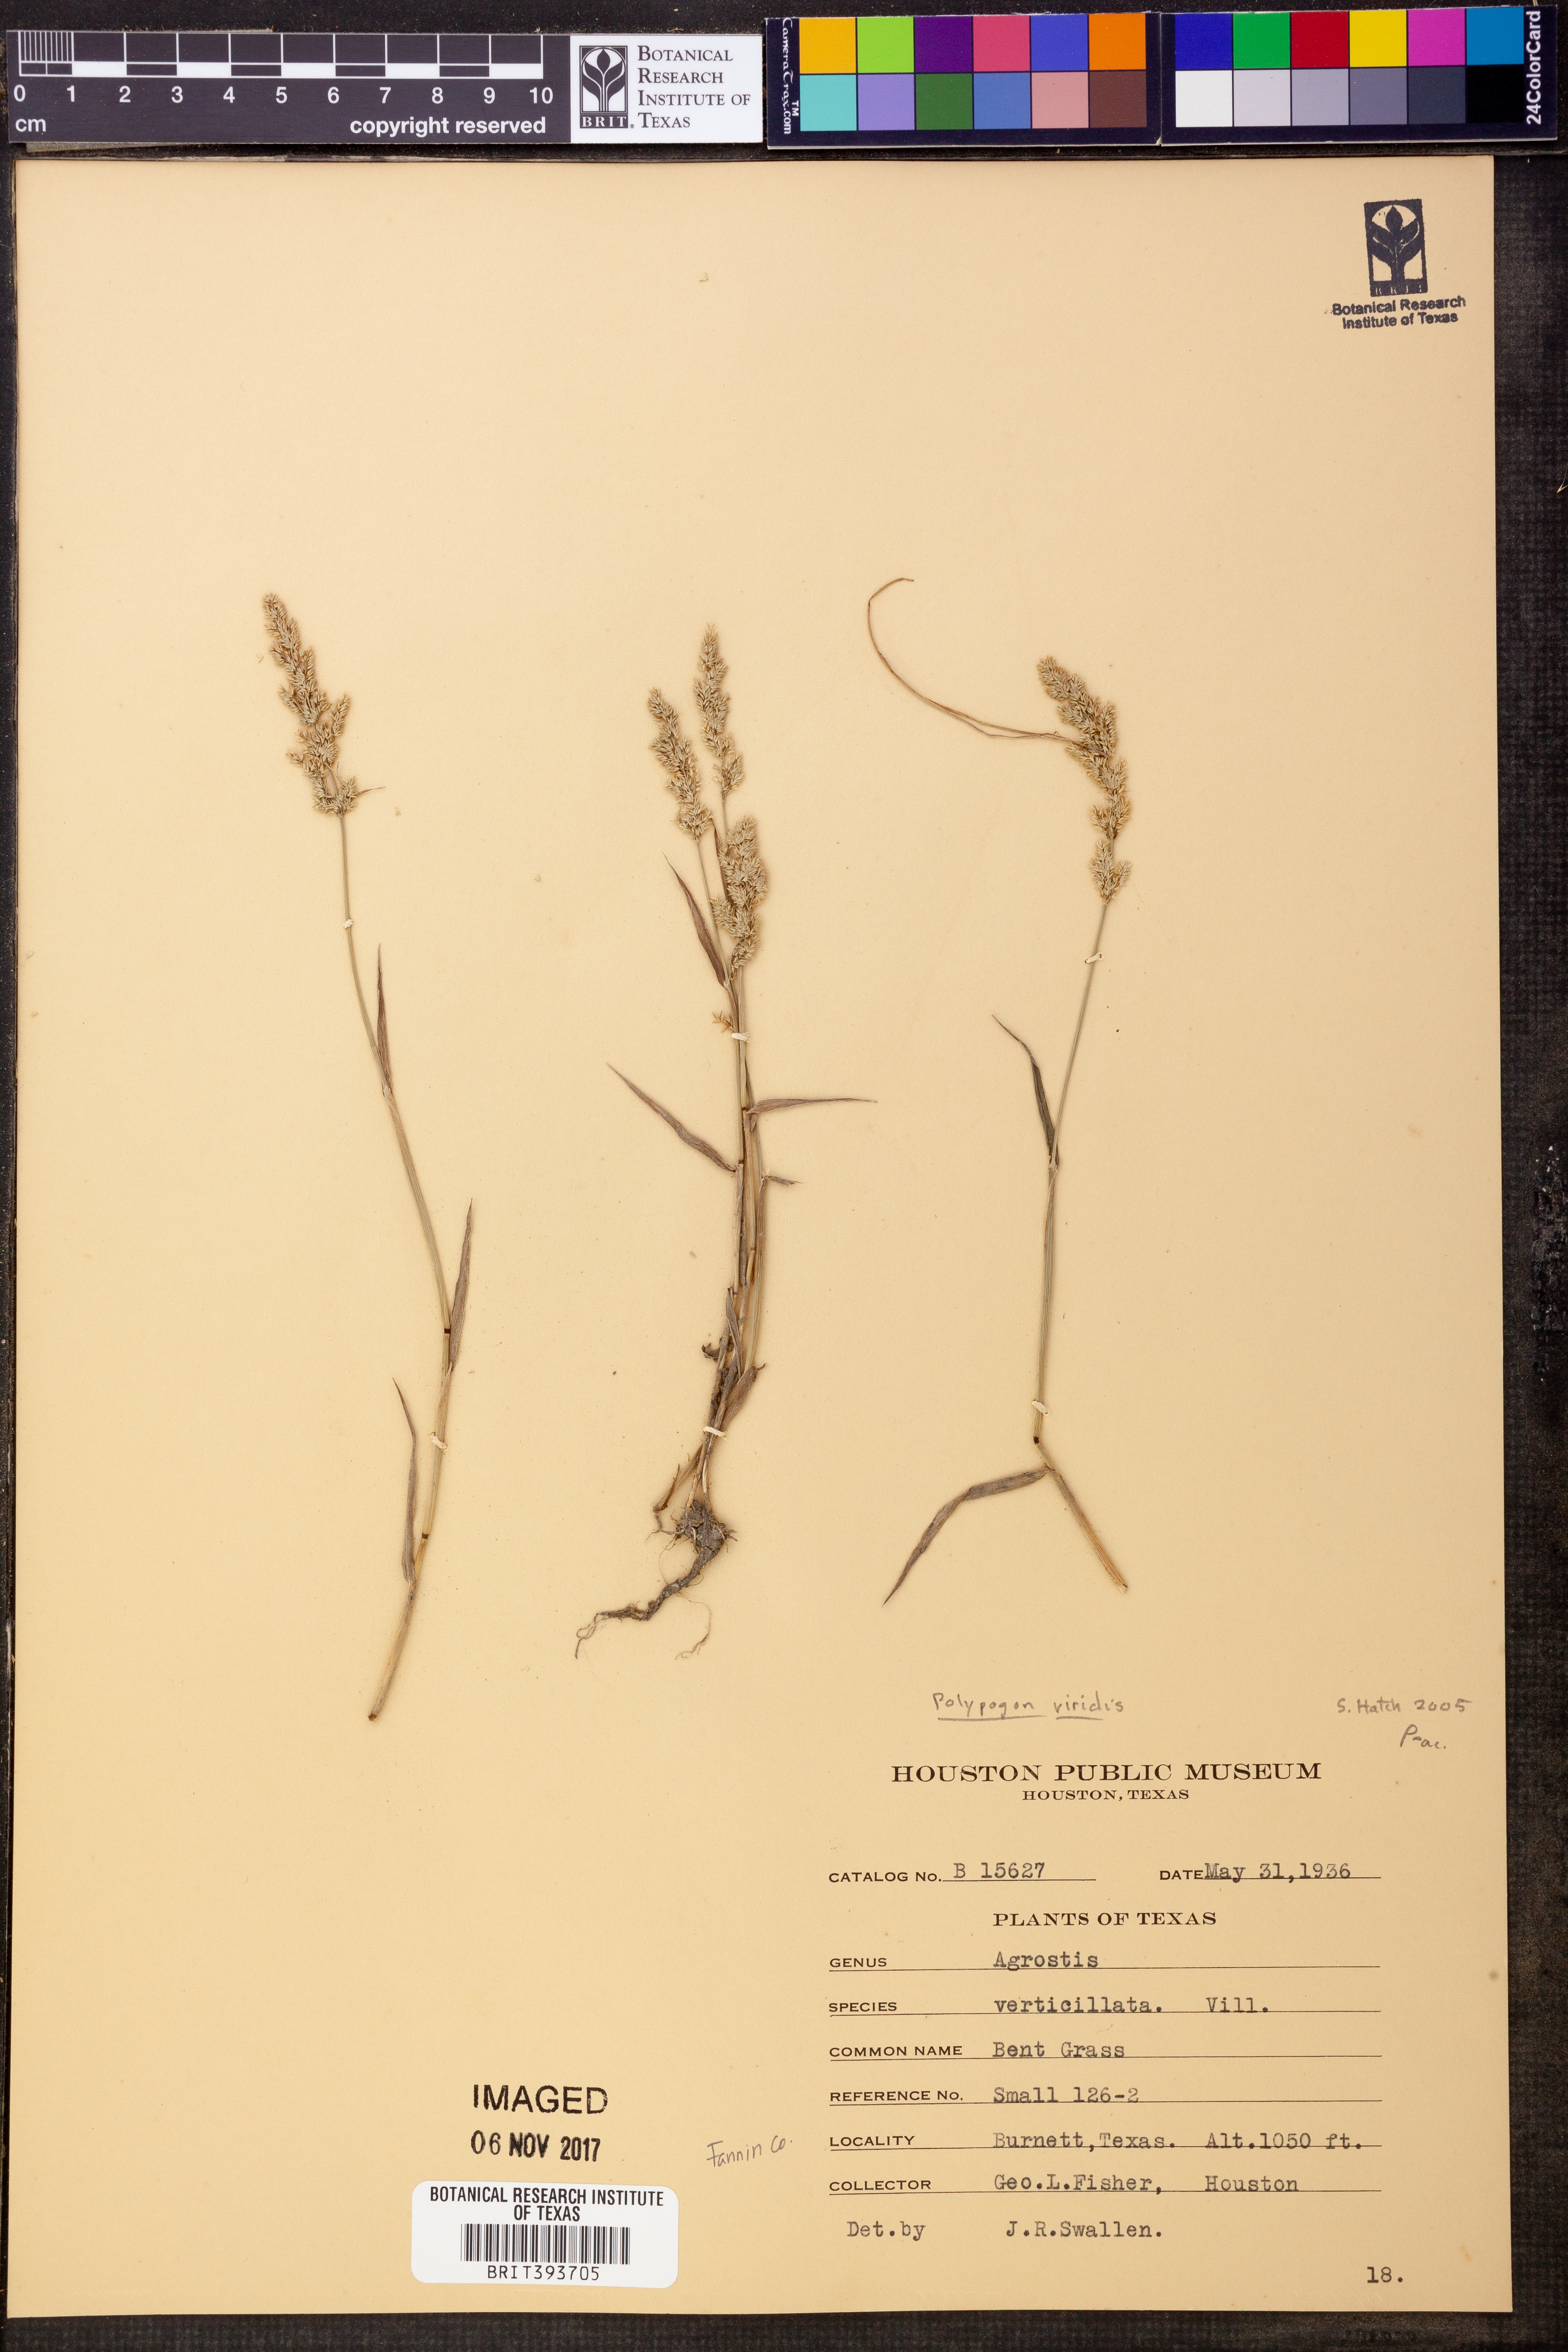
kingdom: Plantae
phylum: Tracheophyta
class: Liliopsida
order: Poales
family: Poaceae
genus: Polypogon
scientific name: Polypogon viridis
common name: Water bent
